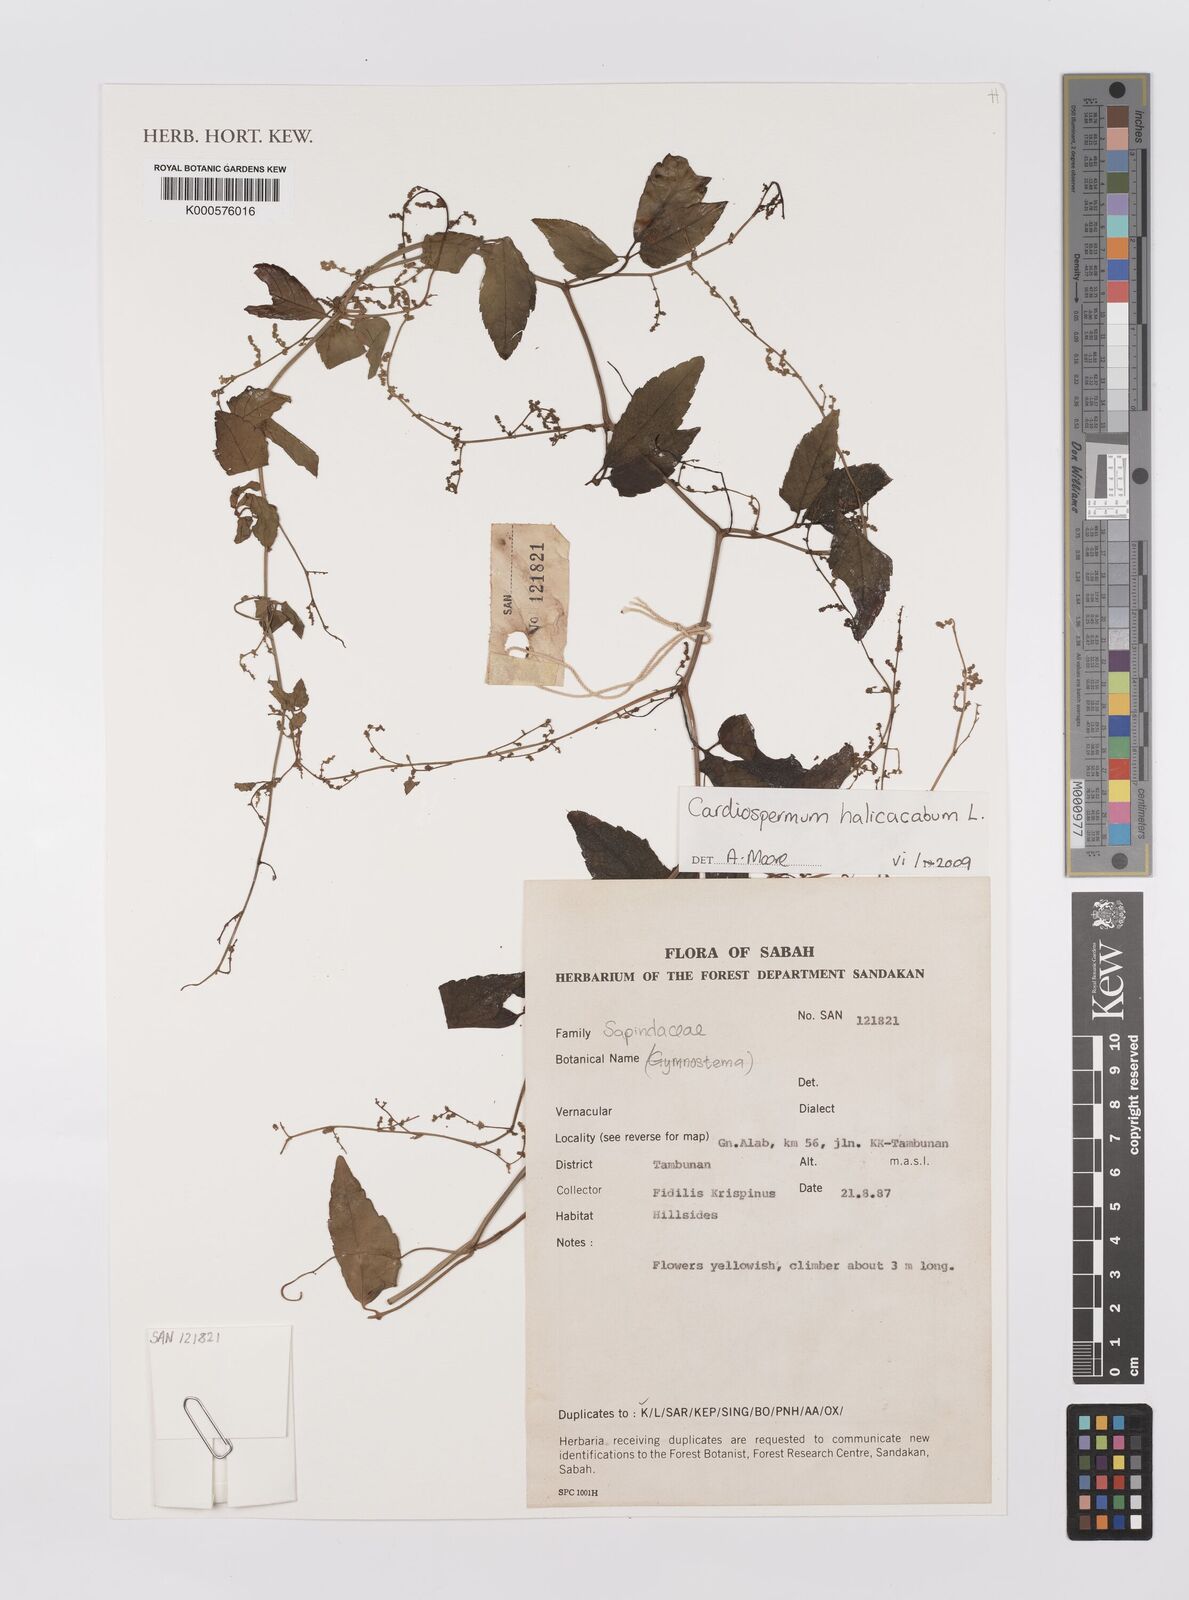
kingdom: Plantae
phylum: Tracheophyta
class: Magnoliopsida
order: Sapindales
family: Sapindaceae
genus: Cardiospermum
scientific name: Cardiospermum halicacabum
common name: Balloon vine
